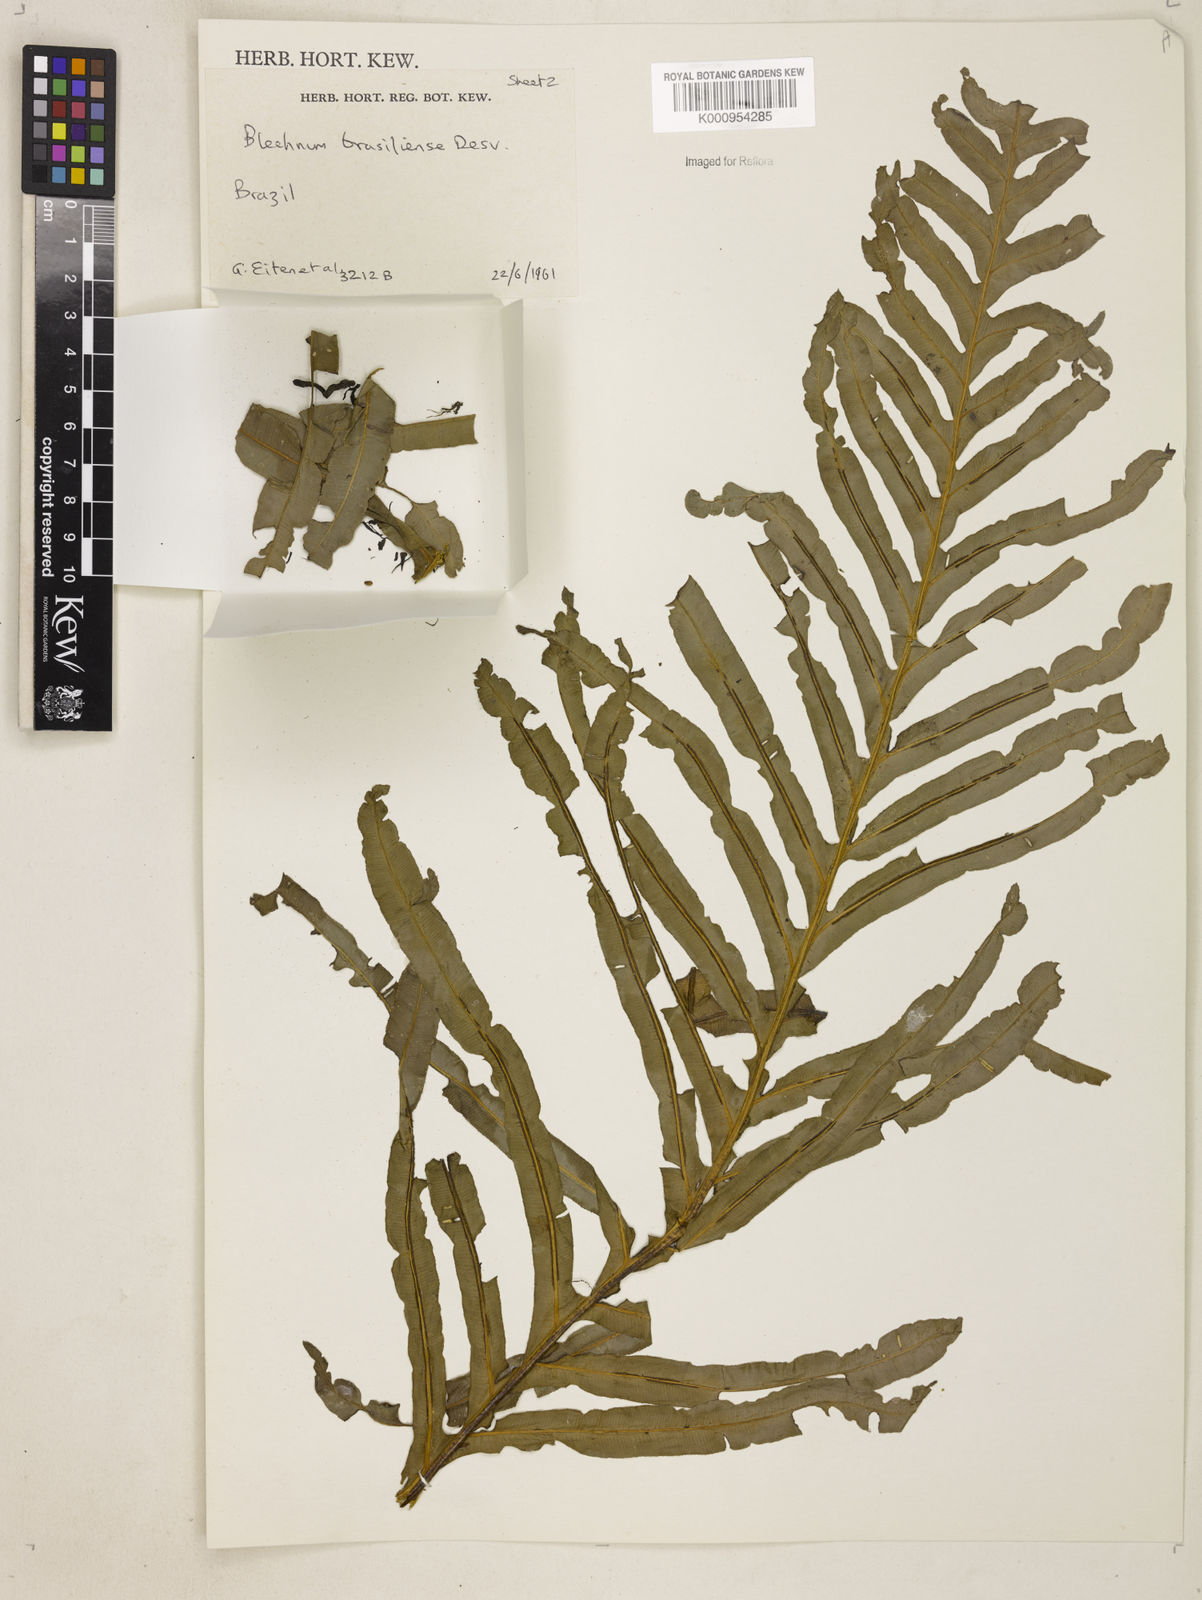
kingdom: Plantae
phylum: Tracheophyta
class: Polypodiopsida
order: Polypodiales
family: Blechnaceae
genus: Neoblechnum
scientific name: Neoblechnum brasiliense
